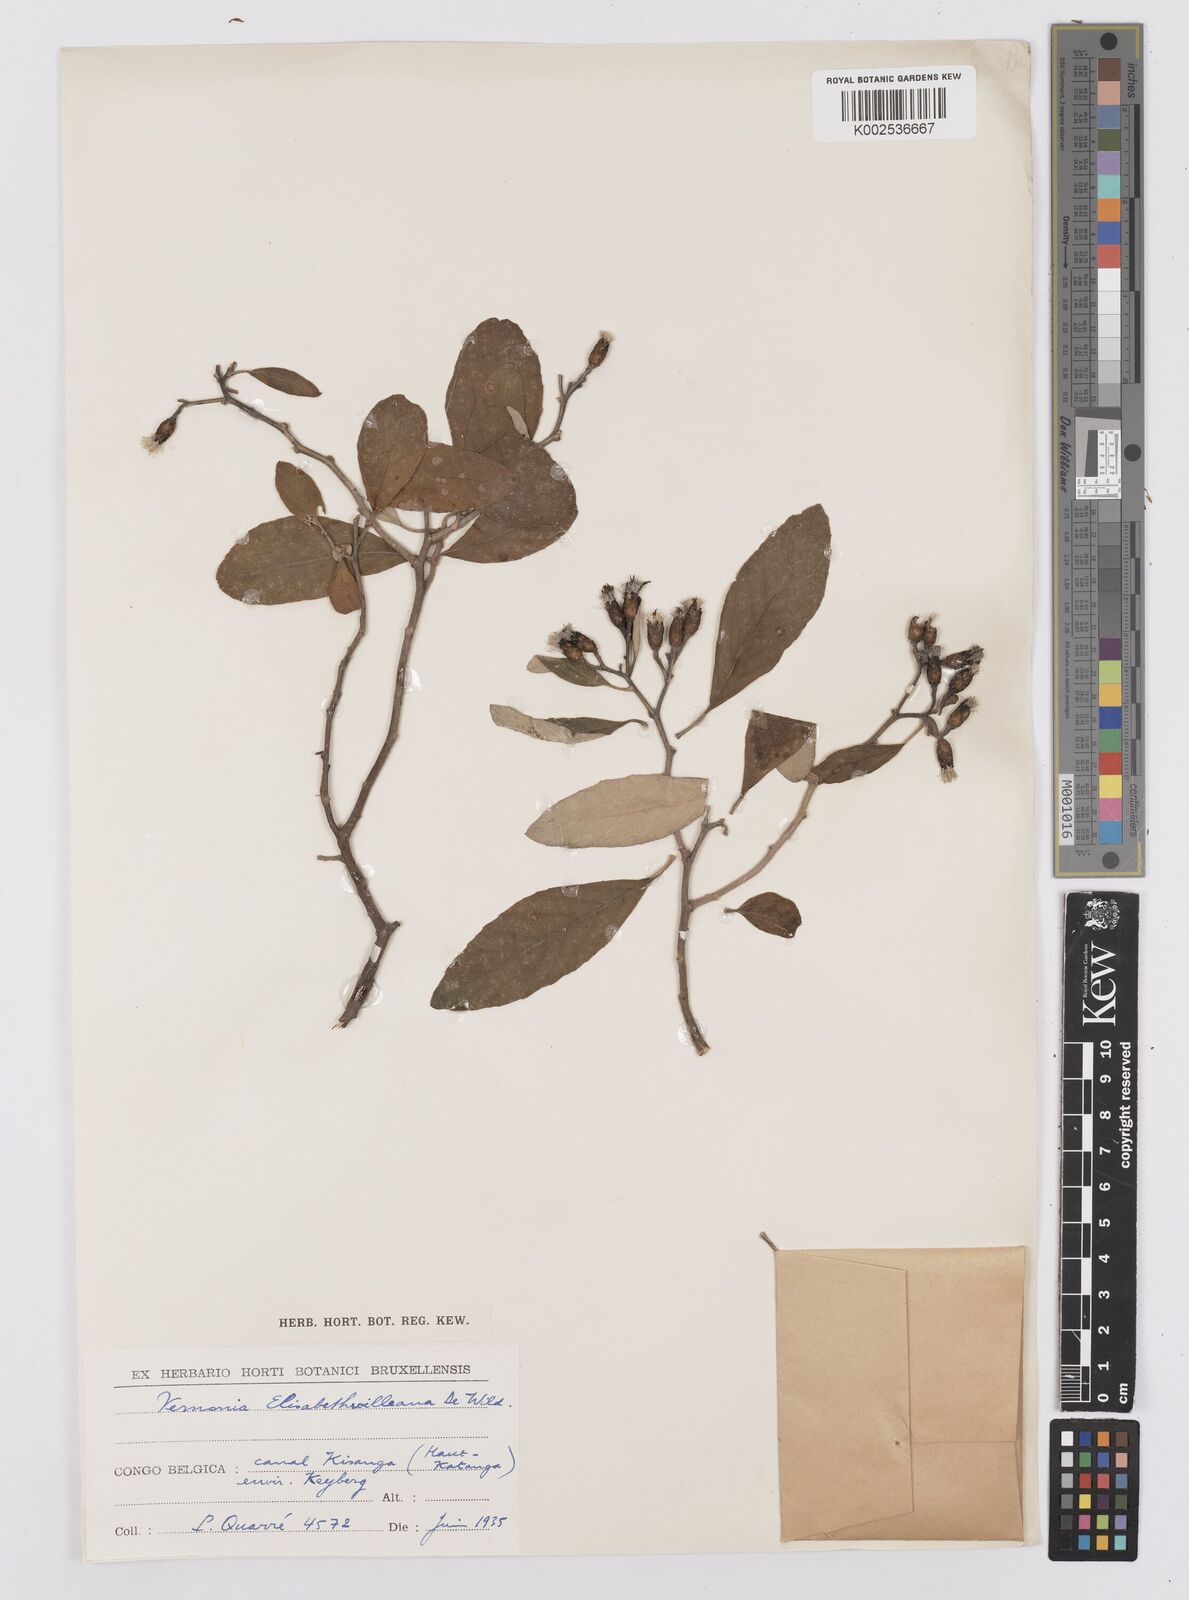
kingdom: Plantae
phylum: Tracheophyta
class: Magnoliopsida
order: Asterales
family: Asteraceae
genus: Gymnanthemum
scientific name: Gymnanthemum bellinghamii
